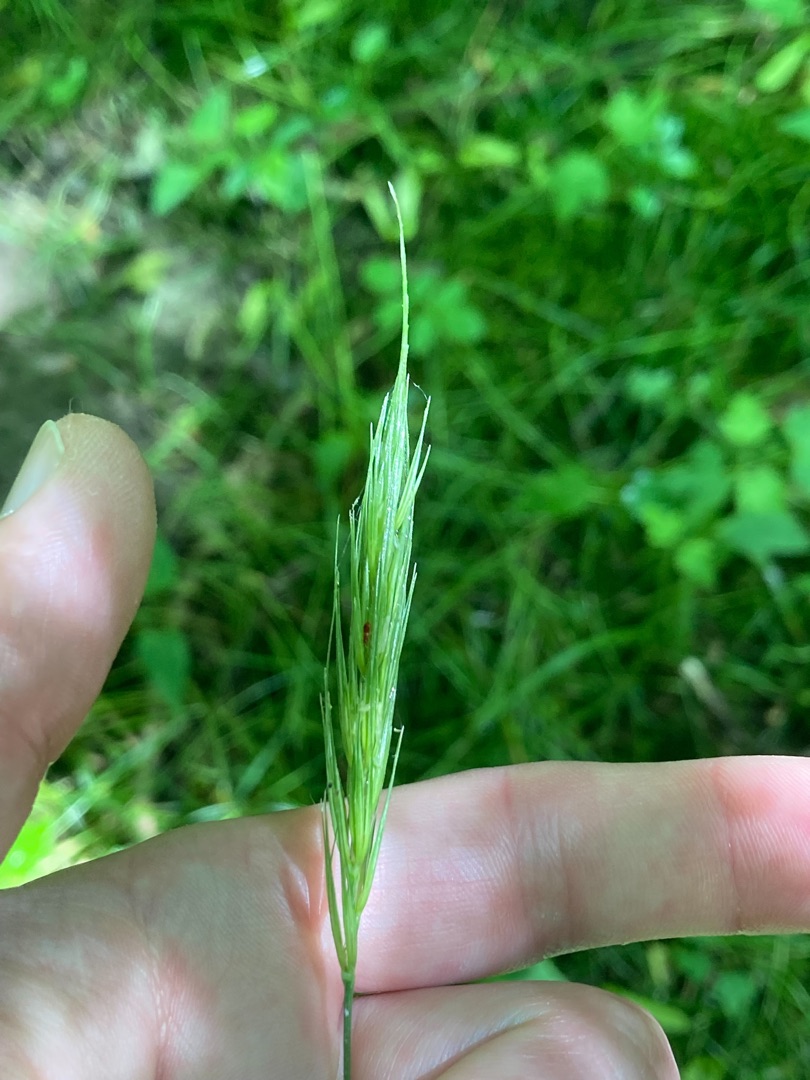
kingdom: Plantae
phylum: Tracheophyta
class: Liliopsida
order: Poales
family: Poaceae
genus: Hordelymus
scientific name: Hordelymus europaeus
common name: Skovbyg
